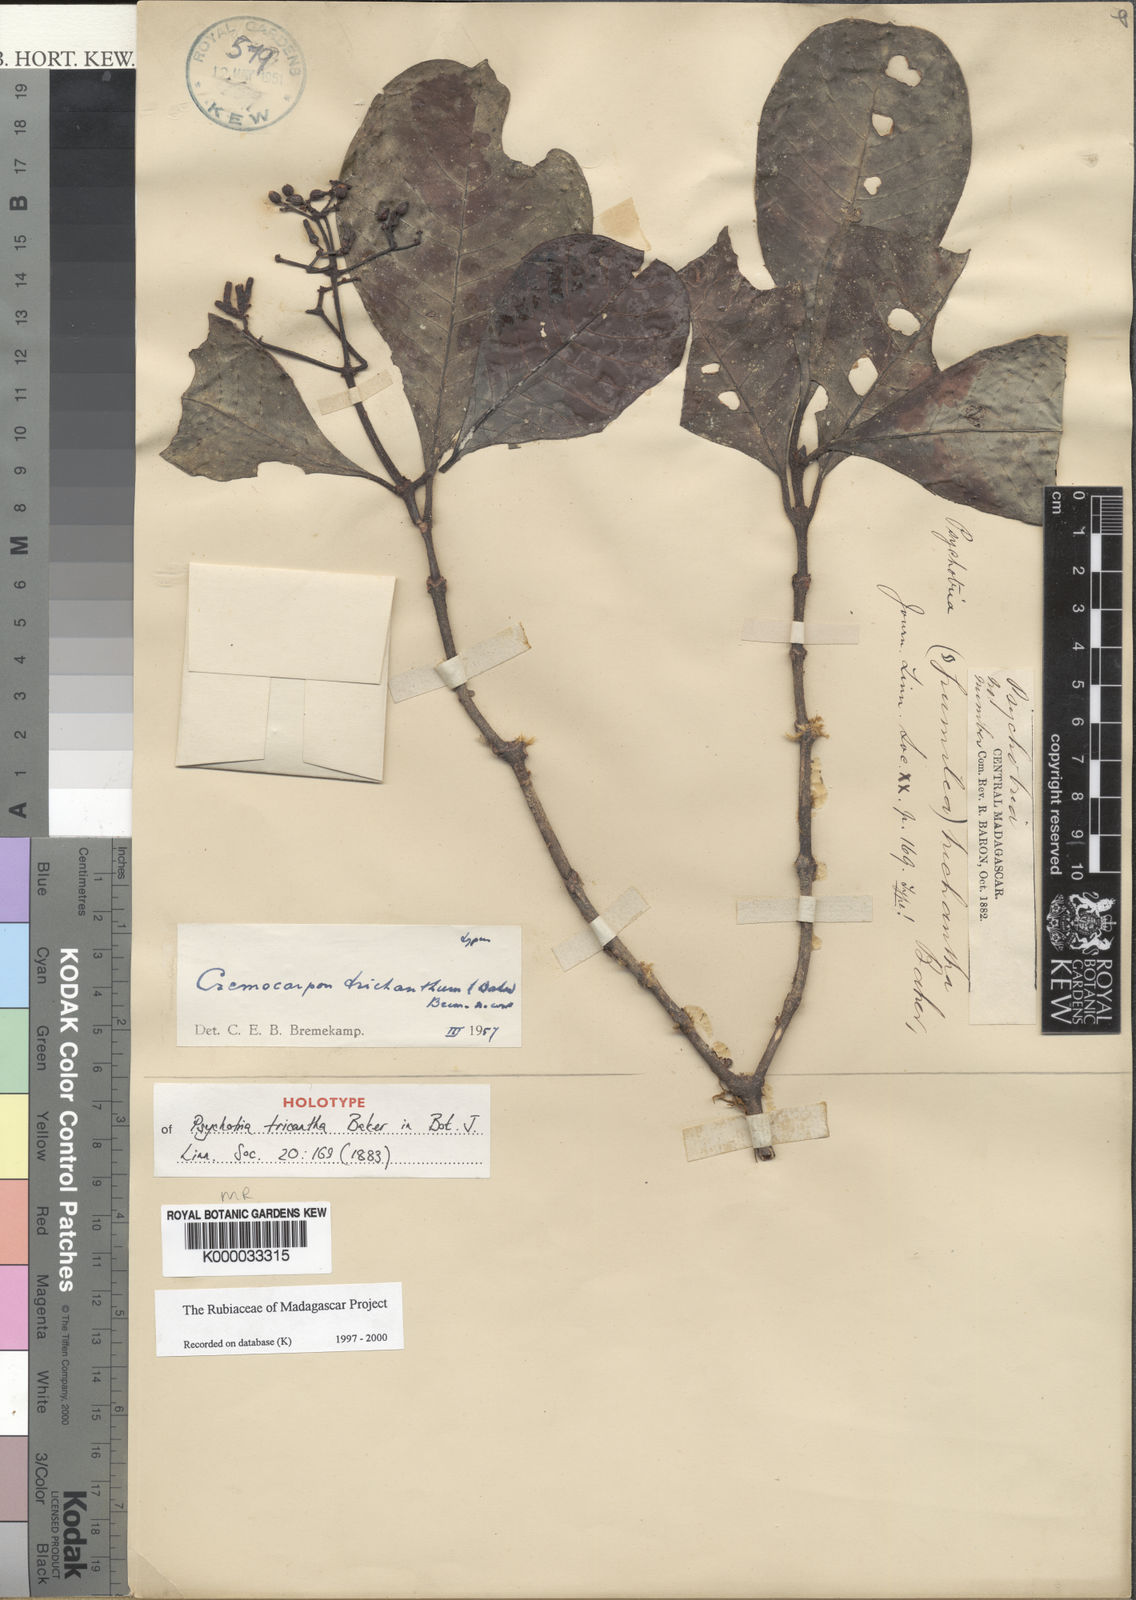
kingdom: Plantae
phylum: Tracheophyta
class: Magnoliopsida
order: Gentianales
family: Rubiaceae
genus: Psychotria
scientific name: Psychotria trichantha
